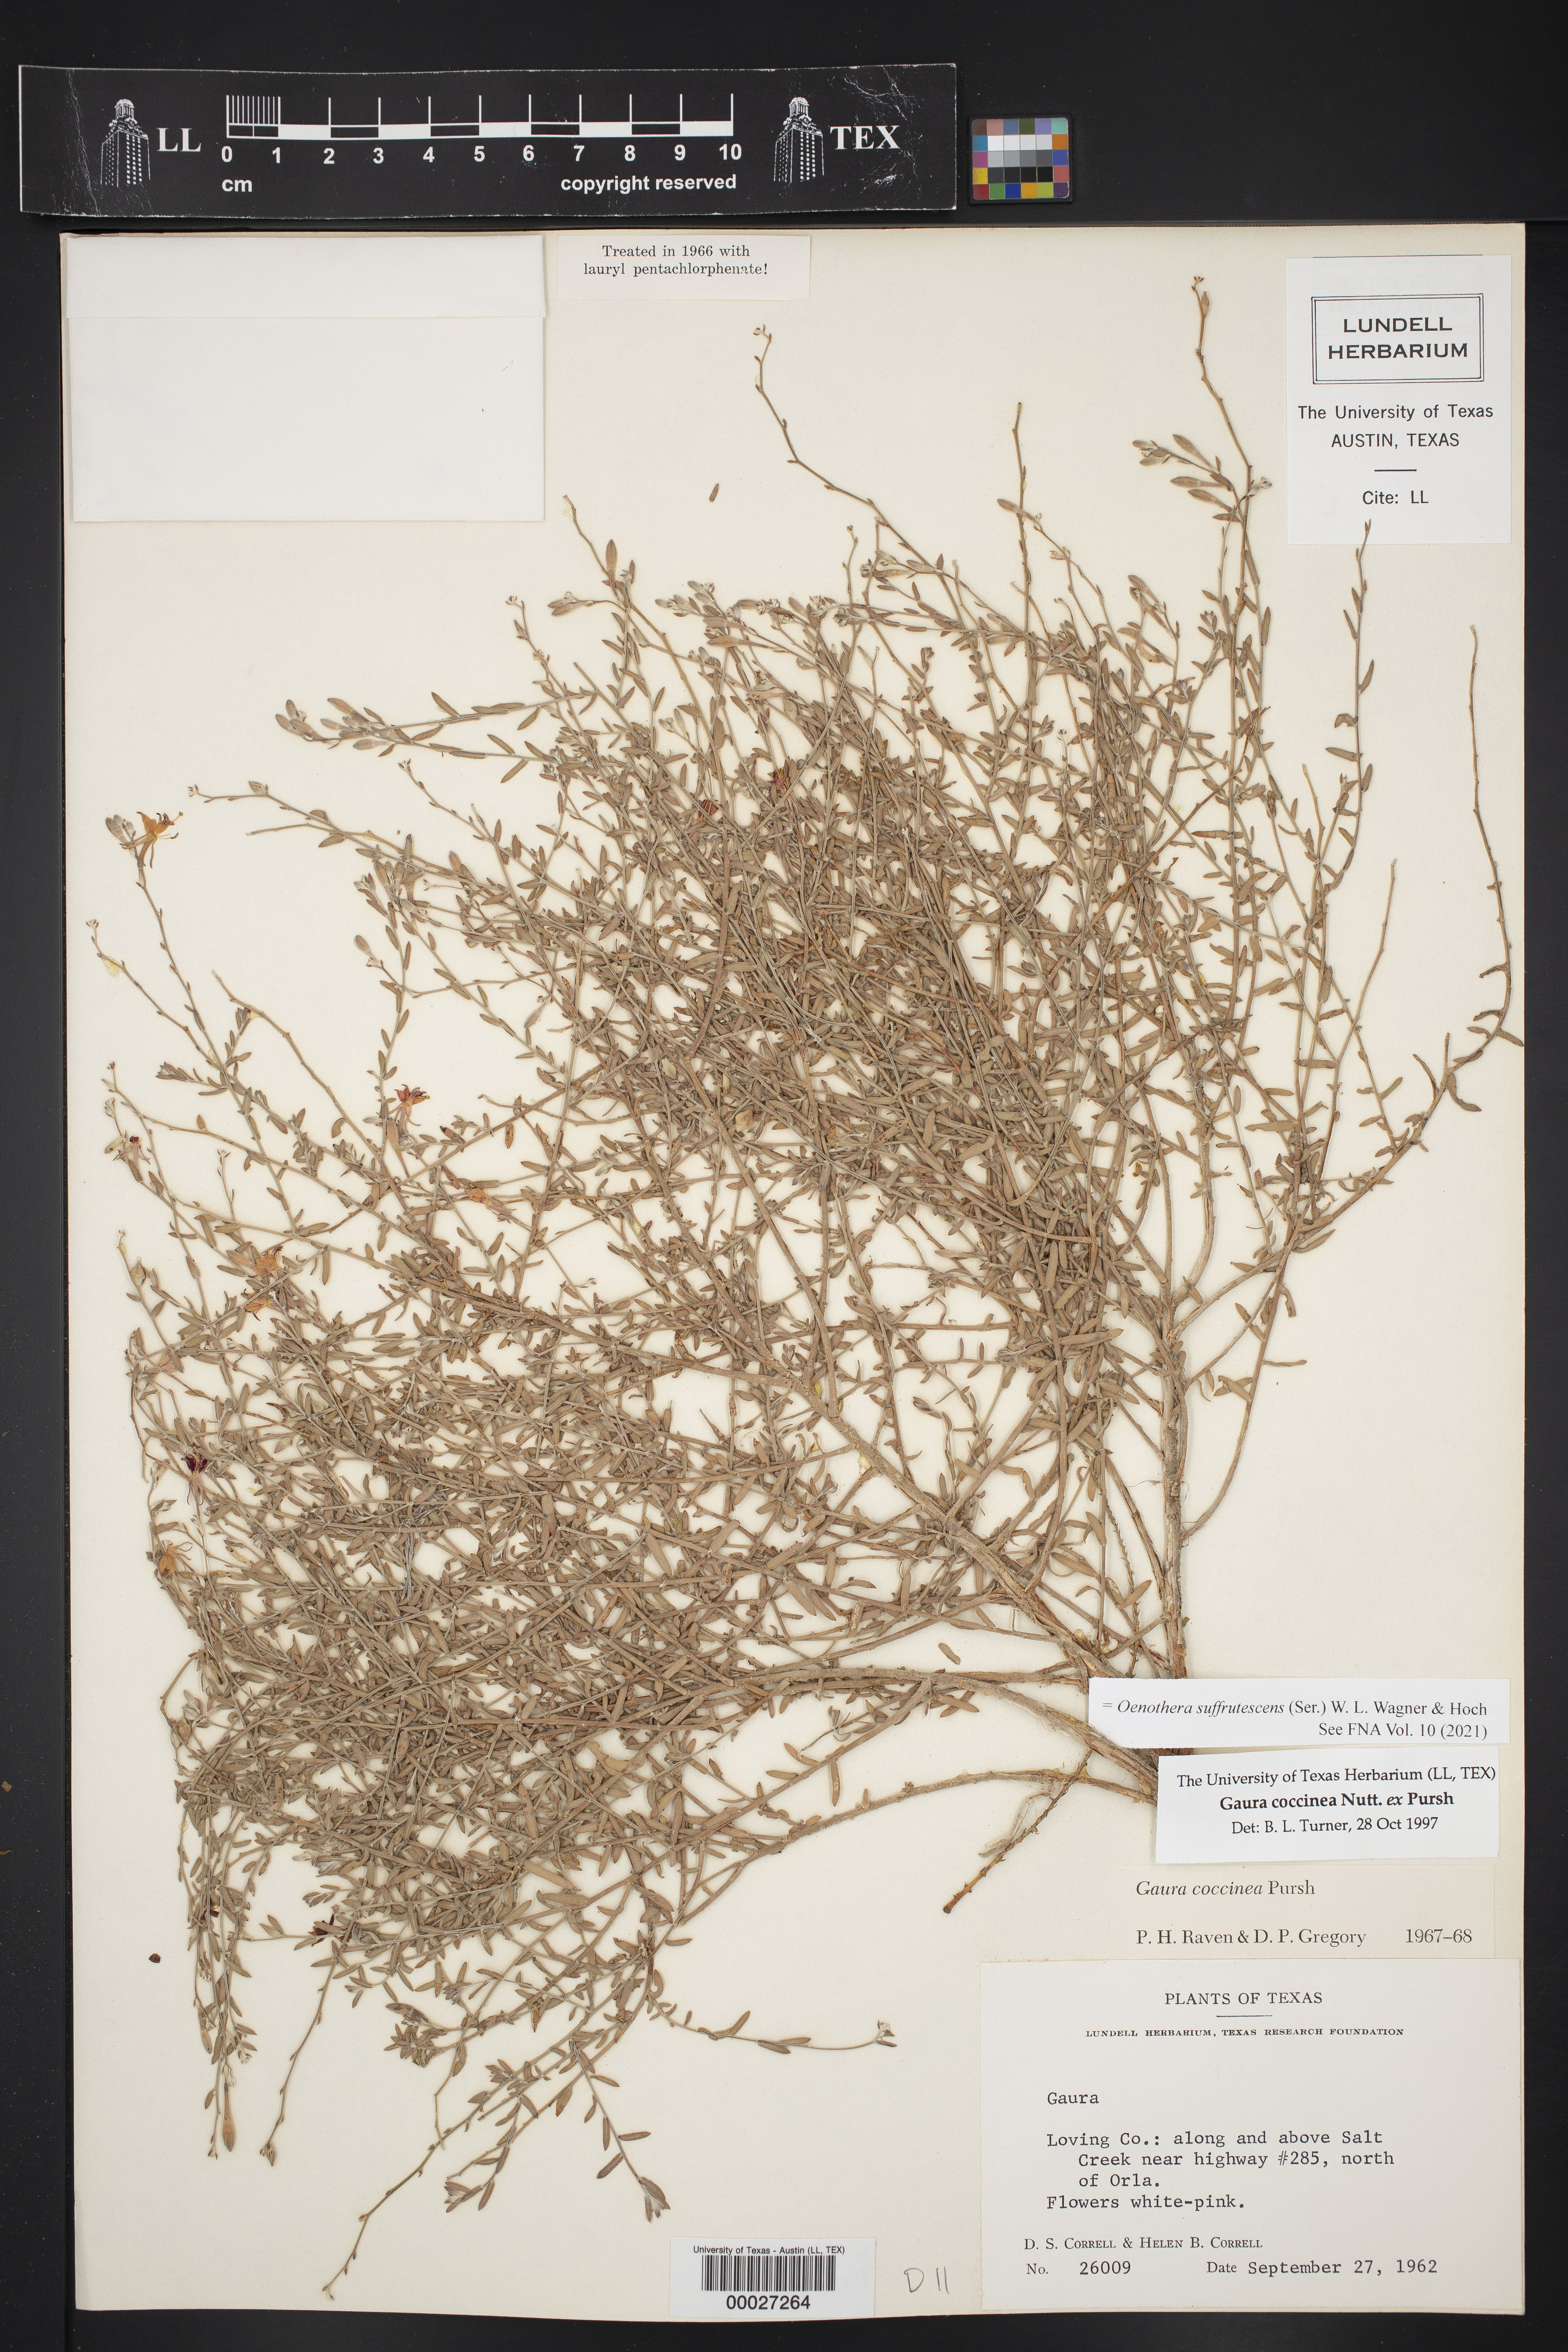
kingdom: Plantae
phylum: Tracheophyta
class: Magnoliopsida
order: Myrtales
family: Onagraceae
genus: Oenothera
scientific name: Oenothera suffrutescens
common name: Scarlet beeblossom
